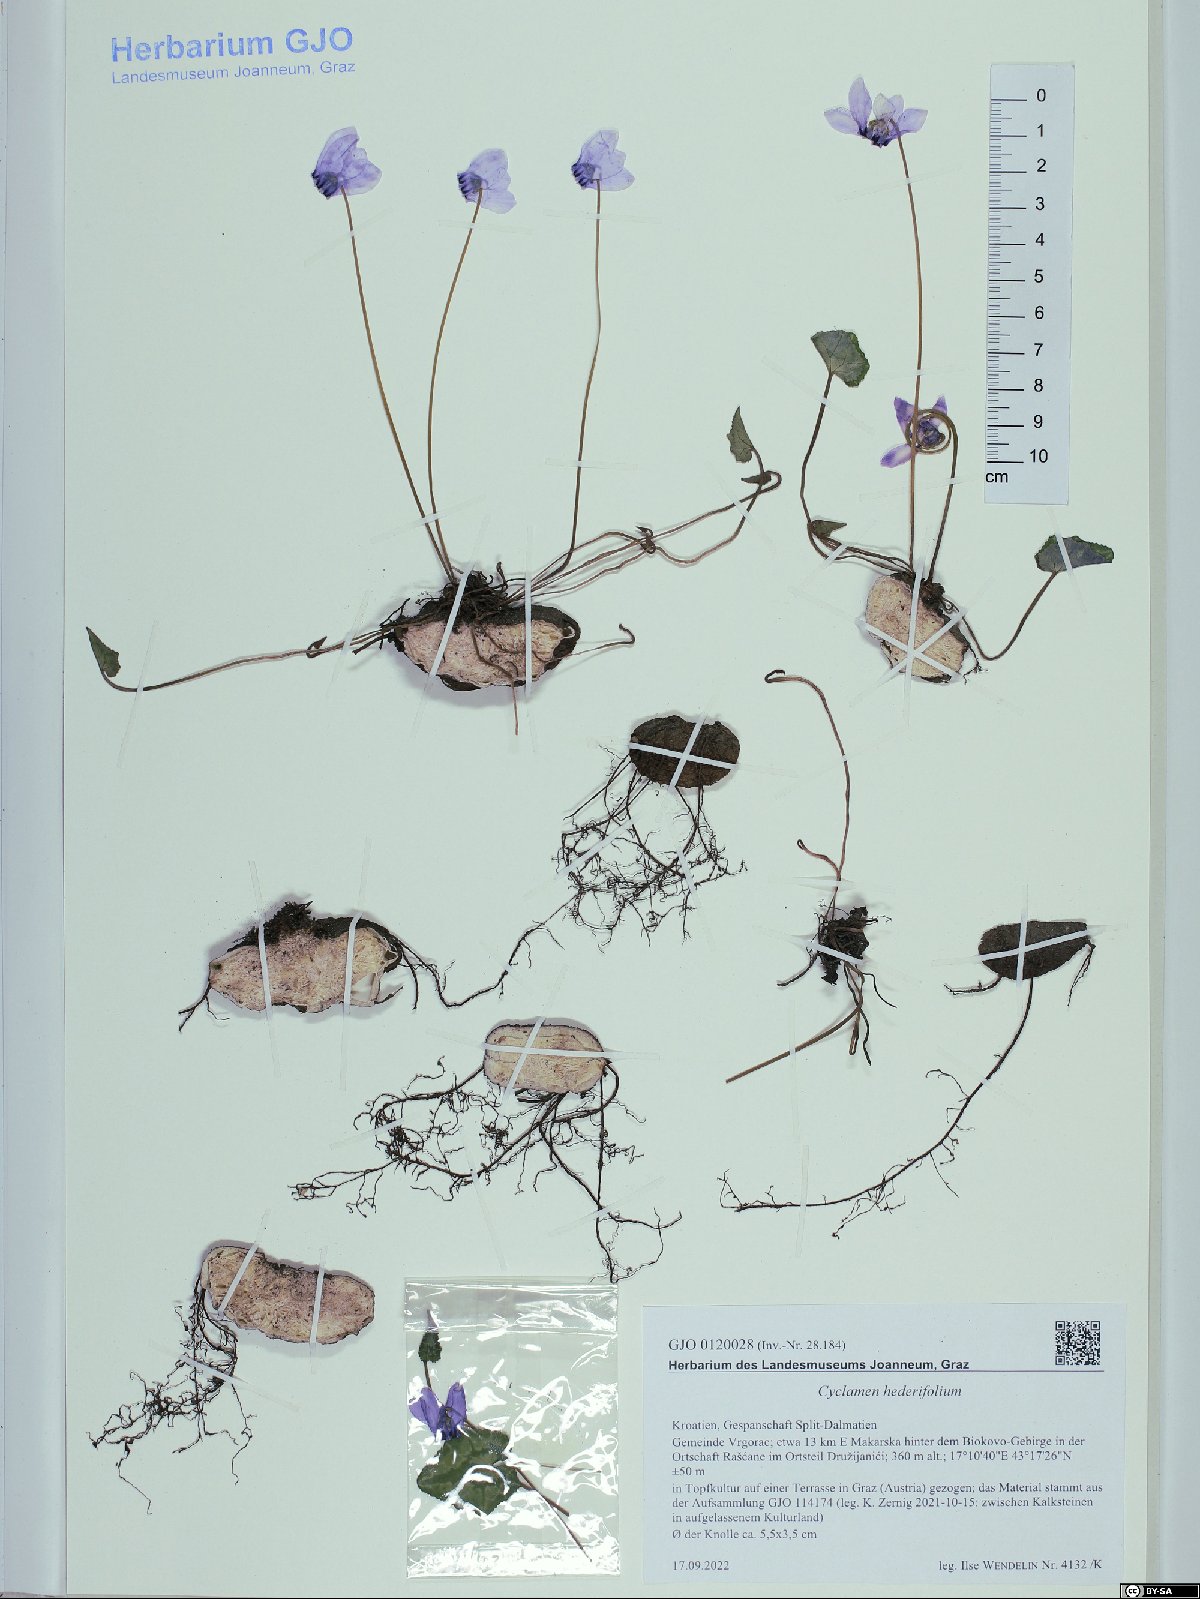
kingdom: Plantae
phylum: Tracheophyta
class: Magnoliopsida
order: Ericales
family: Primulaceae
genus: Cyclamen
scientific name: Cyclamen hederifolium
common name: Sowbread
